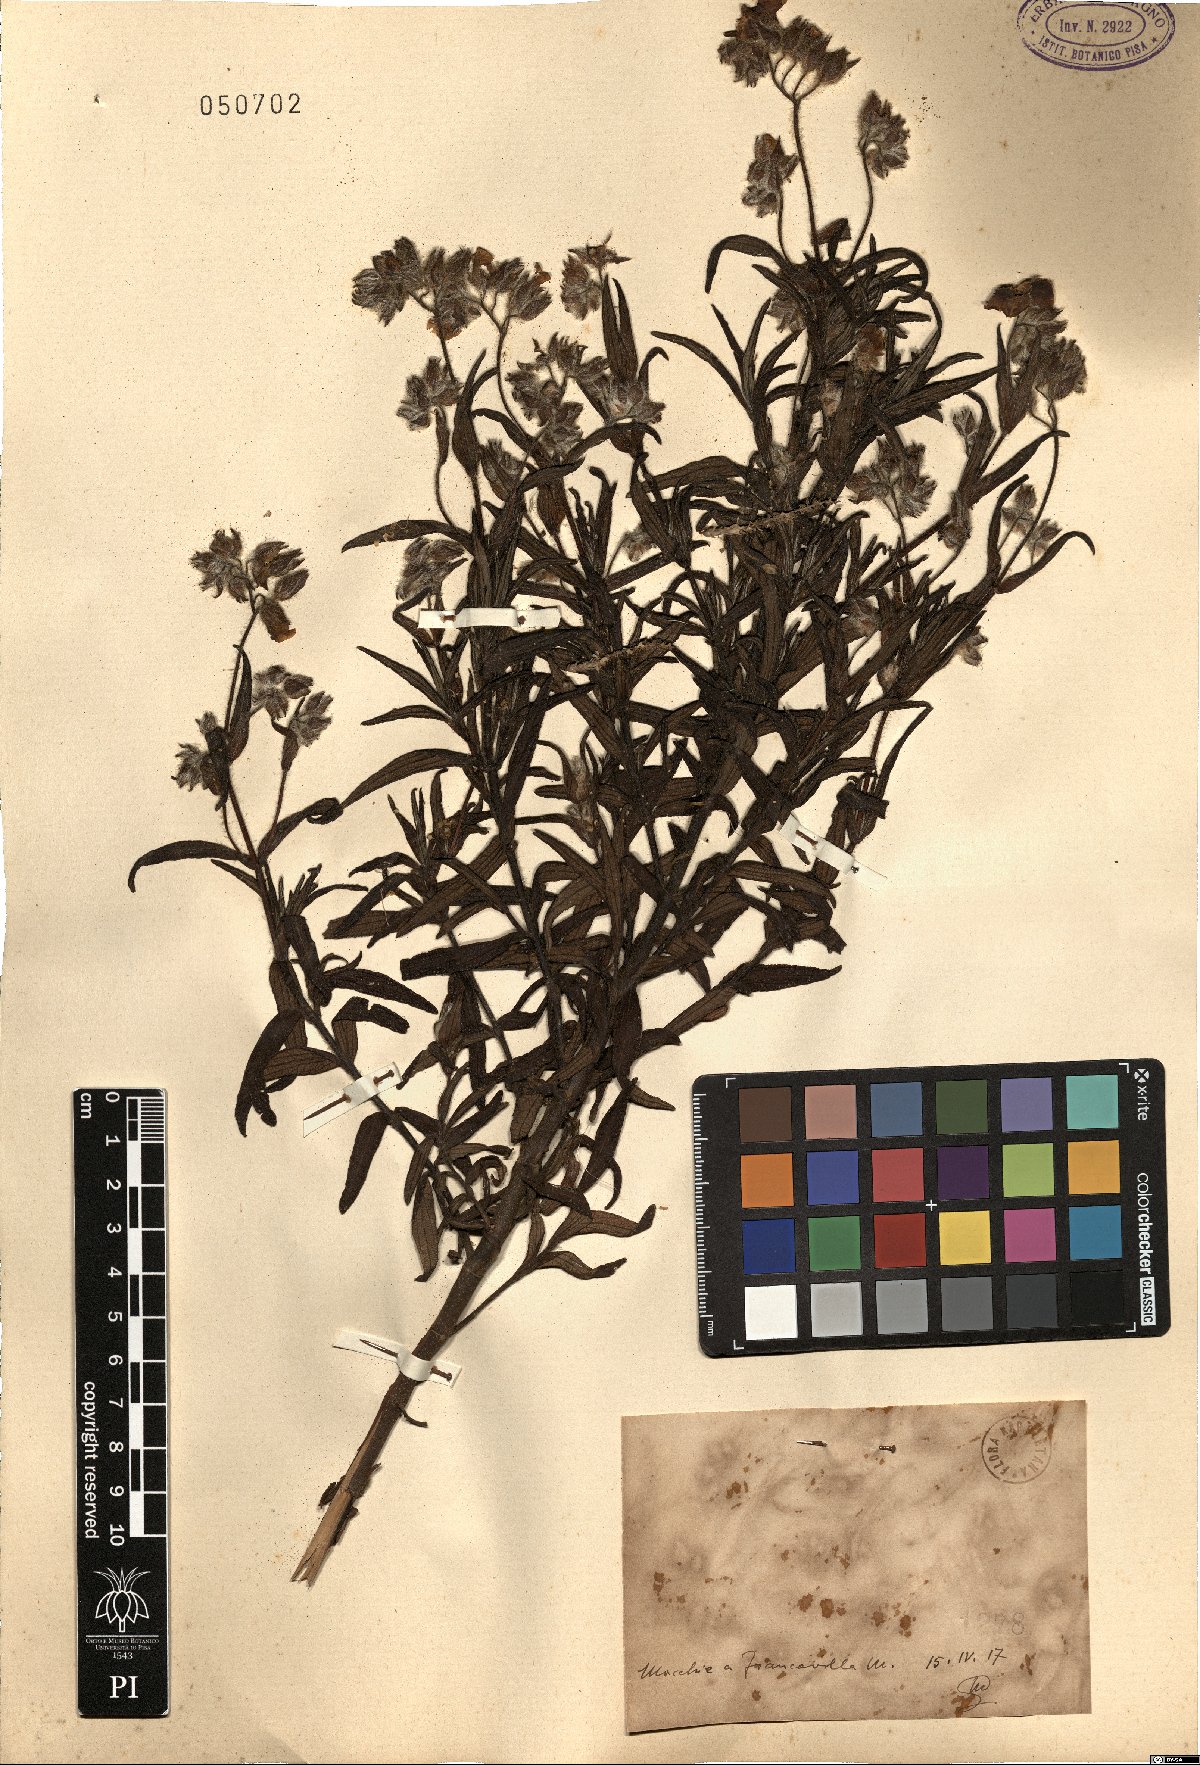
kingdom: Plantae
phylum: Tracheophyta
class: Magnoliopsida
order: Malvales
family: Cistaceae
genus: Cistus
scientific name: Cistus
